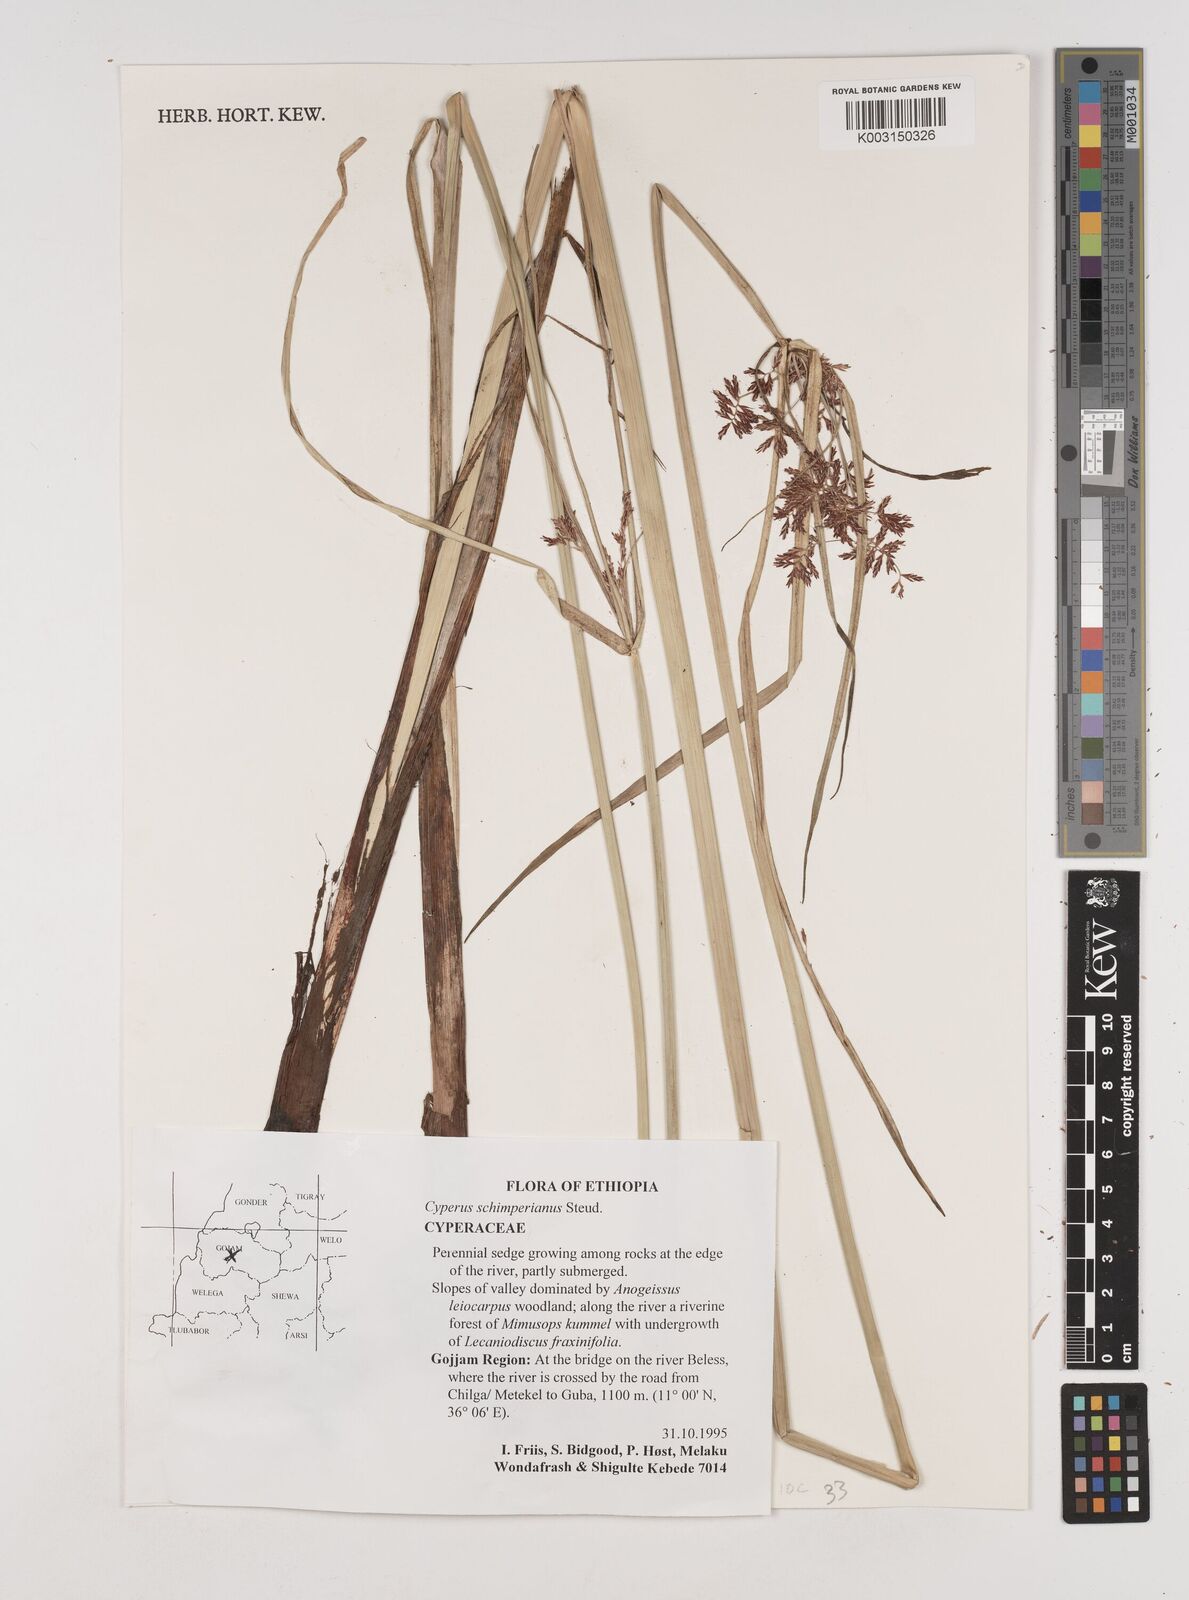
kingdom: Plantae
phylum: Tracheophyta
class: Liliopsida
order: Poales
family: Cyperaceae
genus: Cyperus
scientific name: Cyperus schimperianus
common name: Schimper flatsedge
